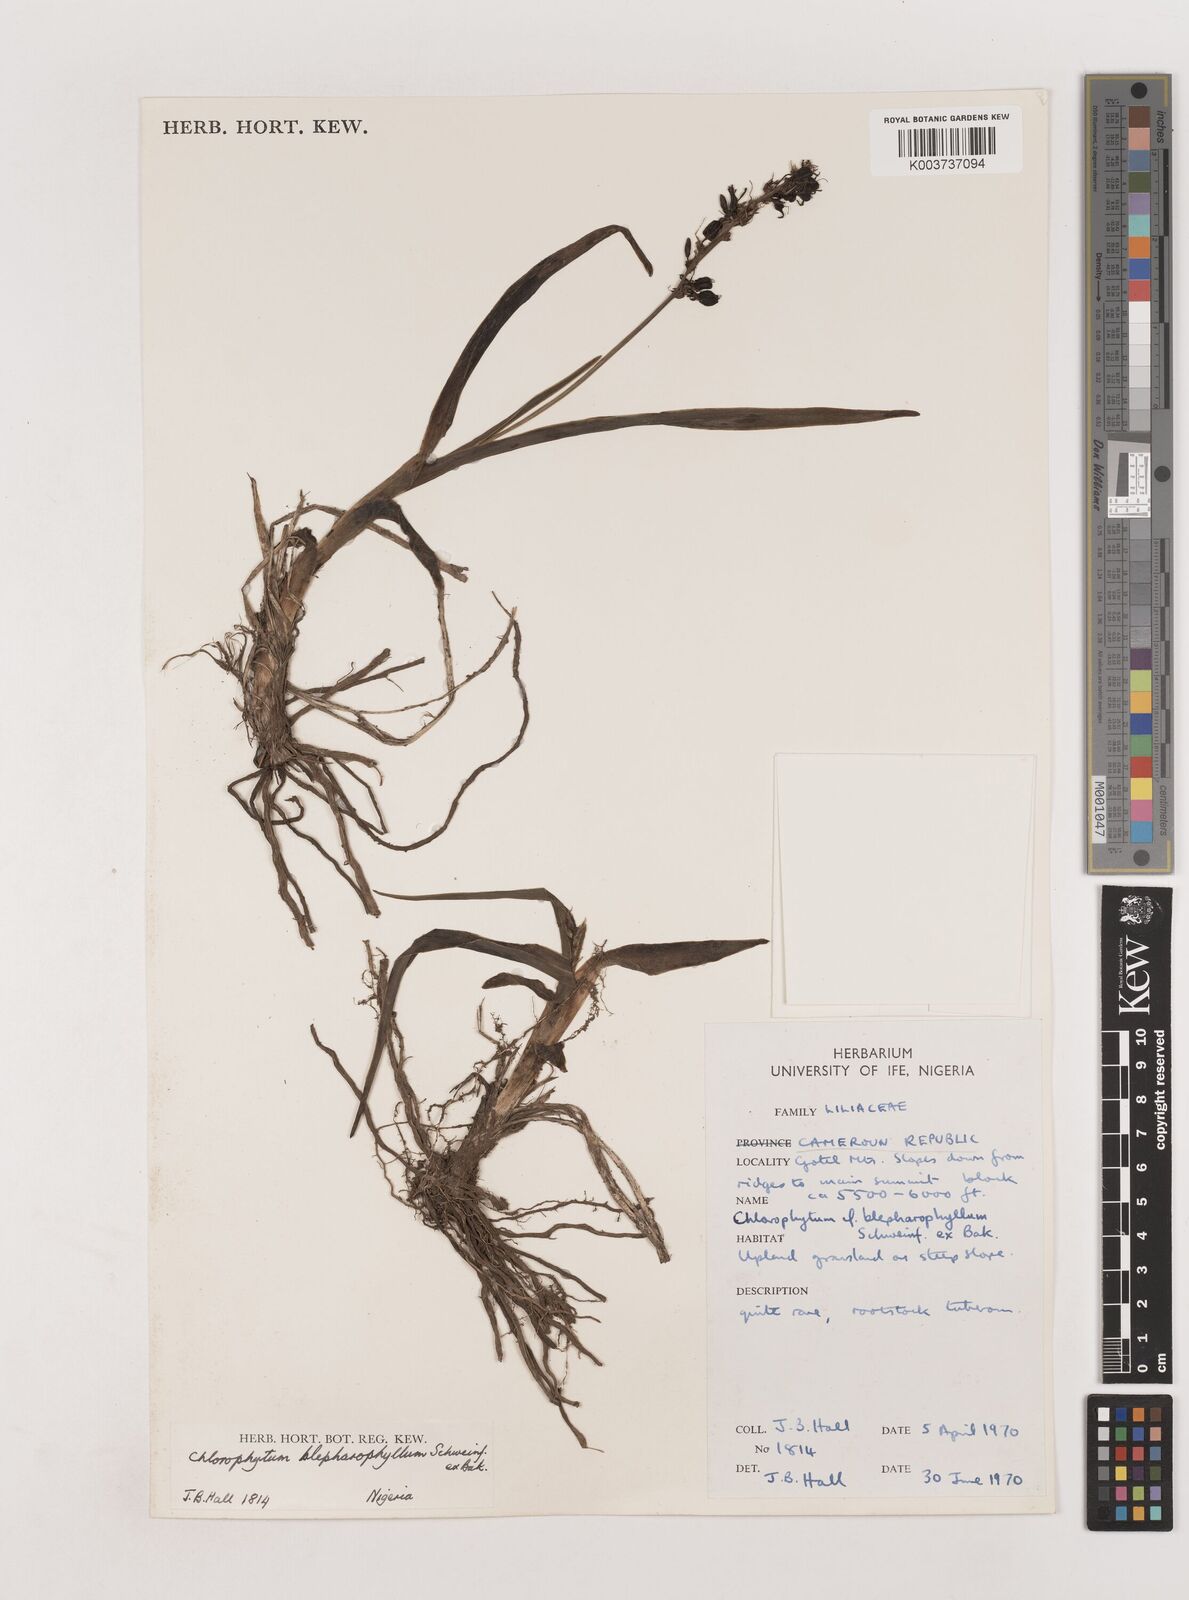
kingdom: Plantae
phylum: Tracheophyta
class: Liliopsida
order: Asparagales
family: Asparagaceae
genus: Chlorophytum
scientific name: Chlorophytum blepharophyllum
